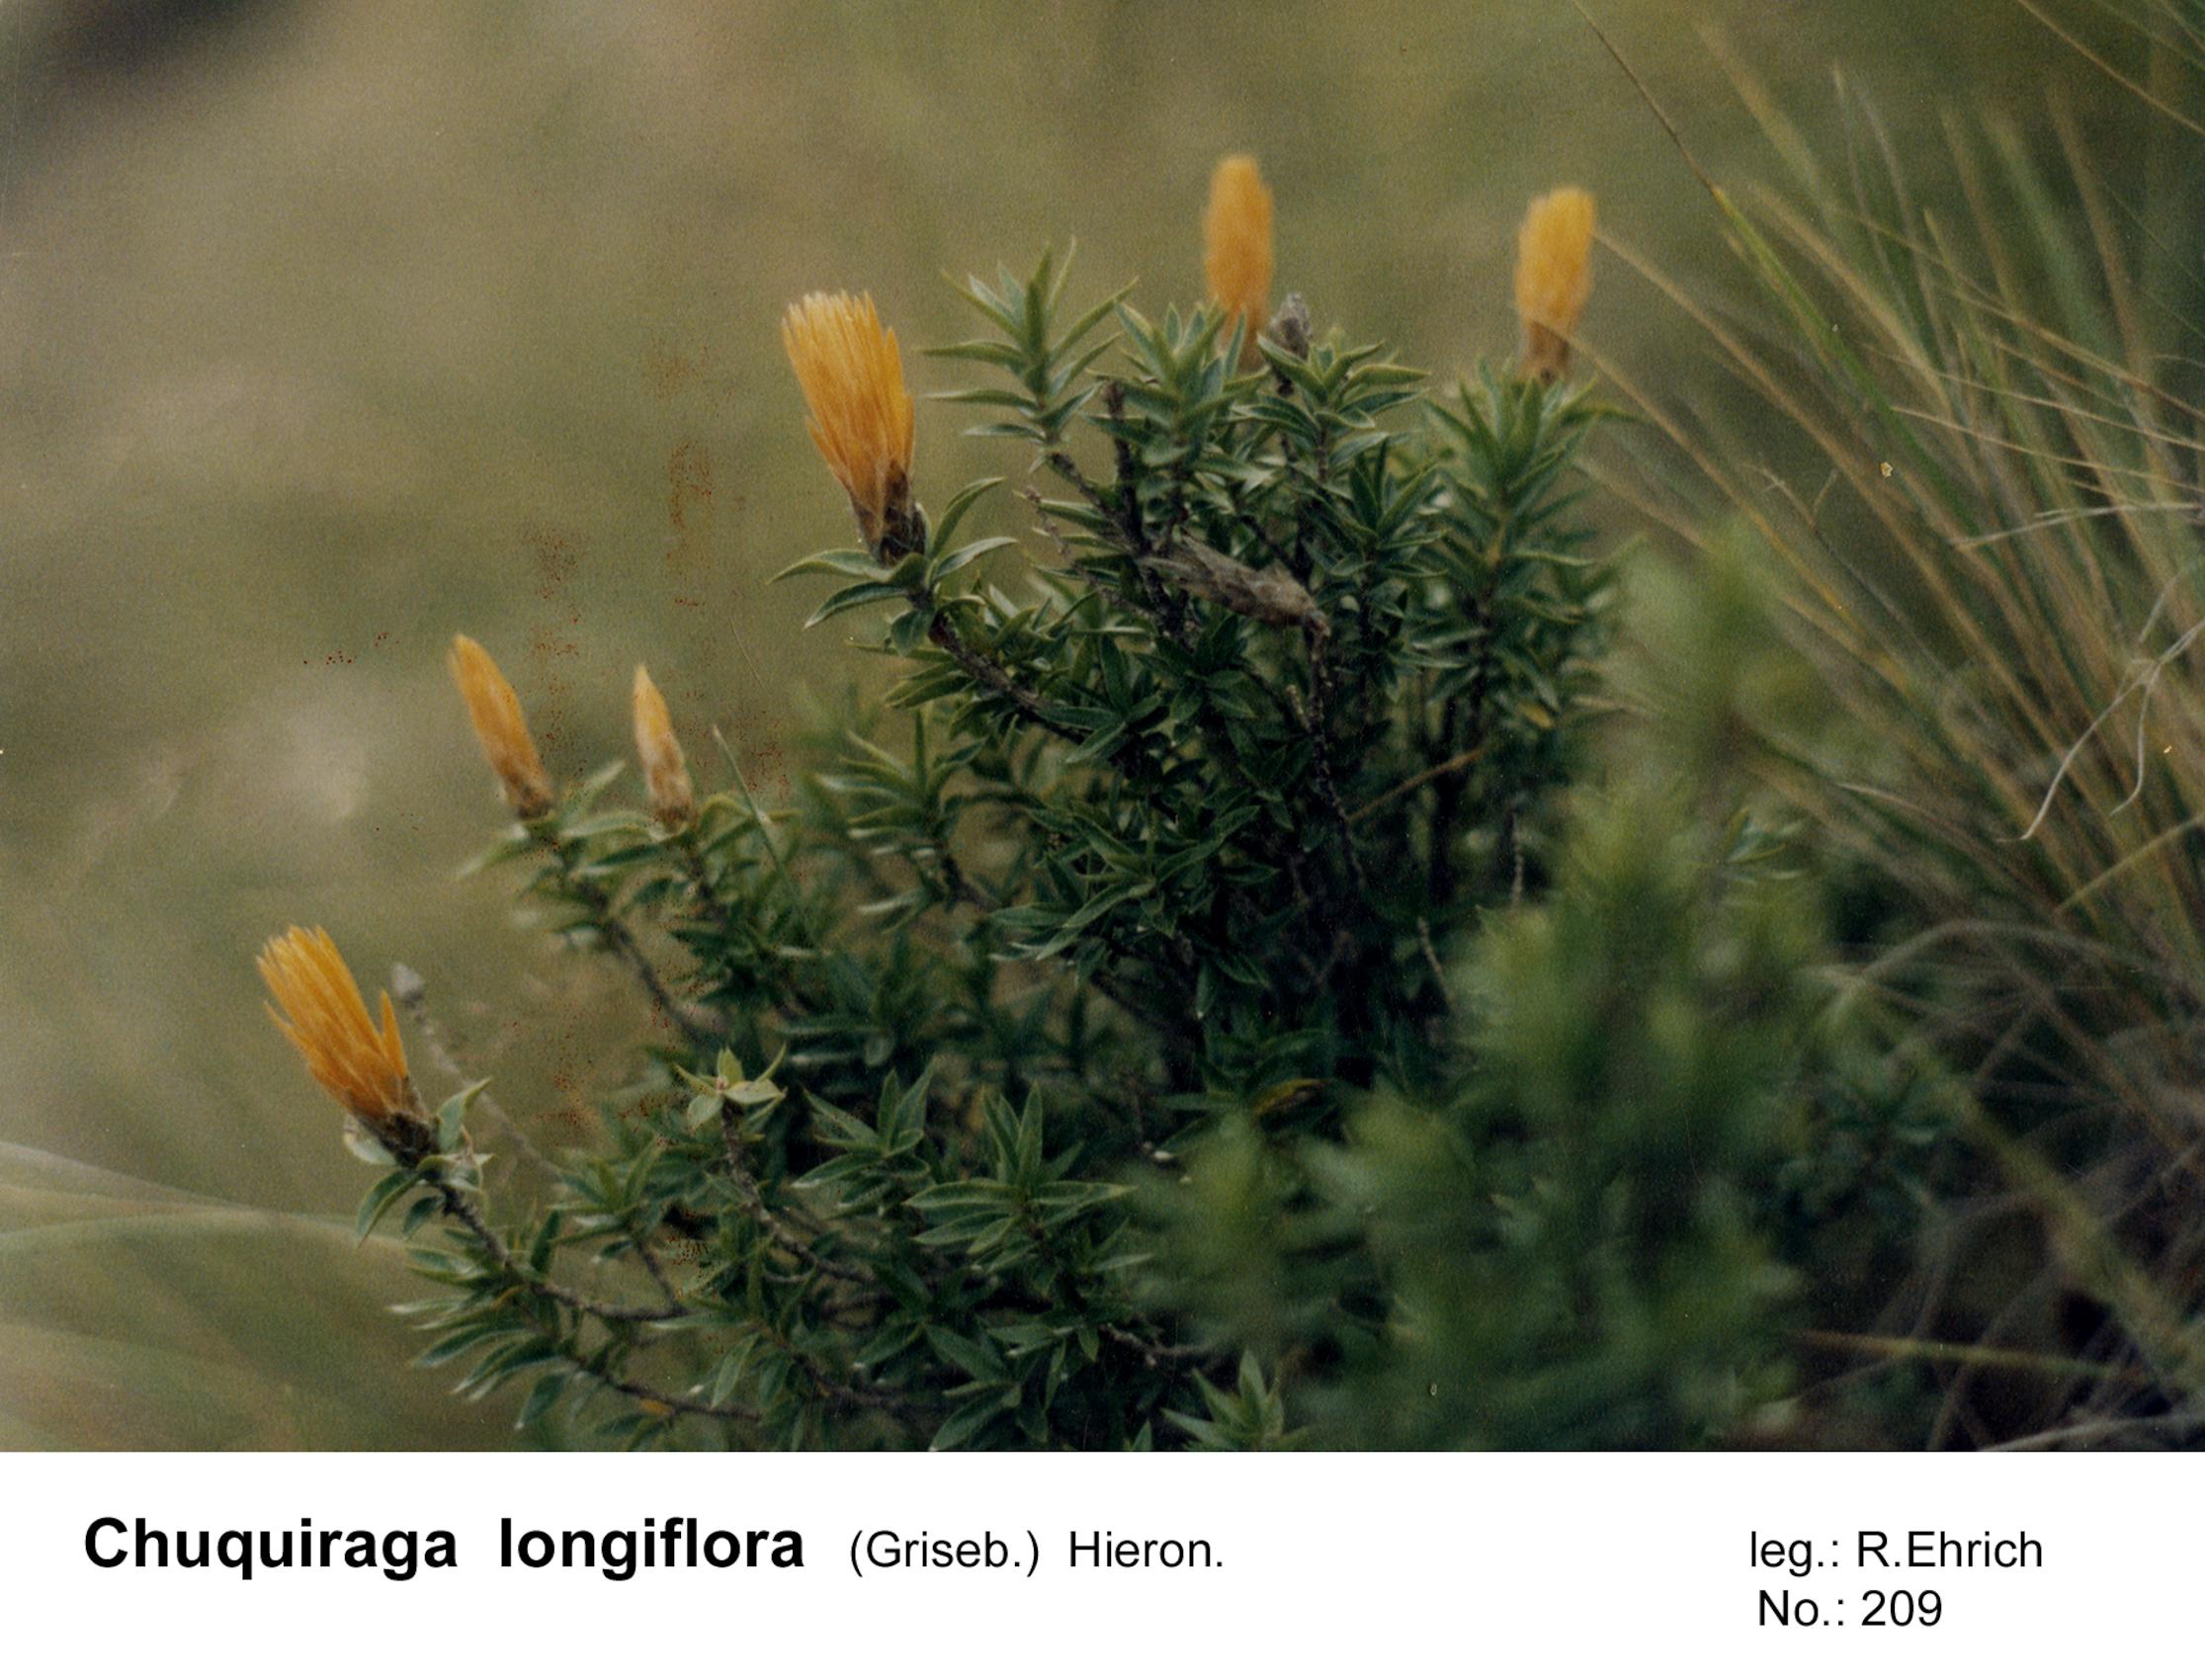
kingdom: Plantae
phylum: Tracheophyta
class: Magnoliopsida
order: Asterales
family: Asteraceae
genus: Chuquiraga
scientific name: Chuquiraga longiflora
